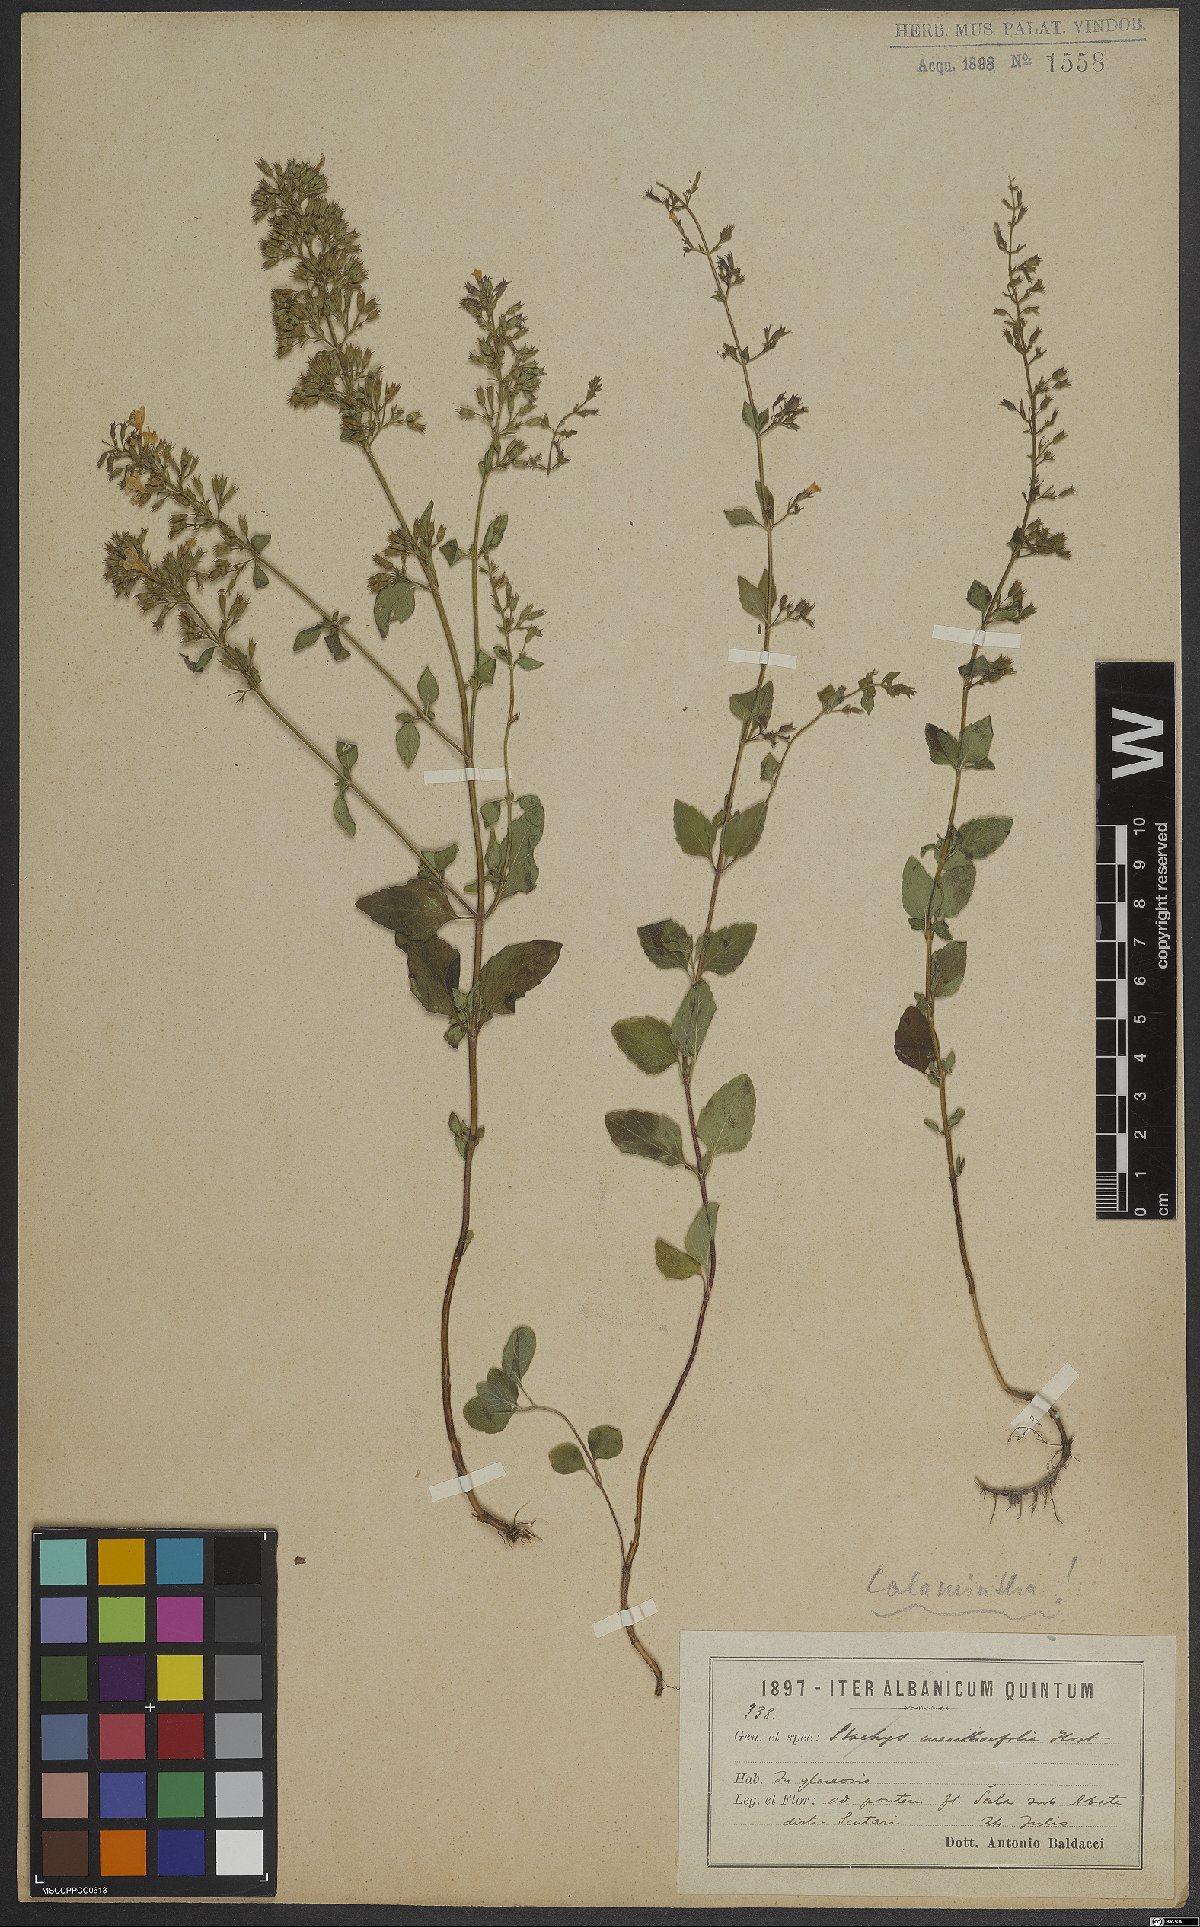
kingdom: Plantae
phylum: Tracheophyta
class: Magnoliopsida
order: Lamiales
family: Lamiaceae
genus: Calamintha
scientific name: Calamintha
